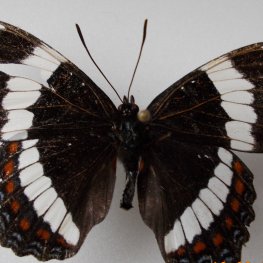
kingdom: Animalia
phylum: Arthropoda
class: Insecta
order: Lepidoptera
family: Nymphalidae
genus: Limenitis
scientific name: Limenitis arthemis
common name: Red-spotted Admiral
